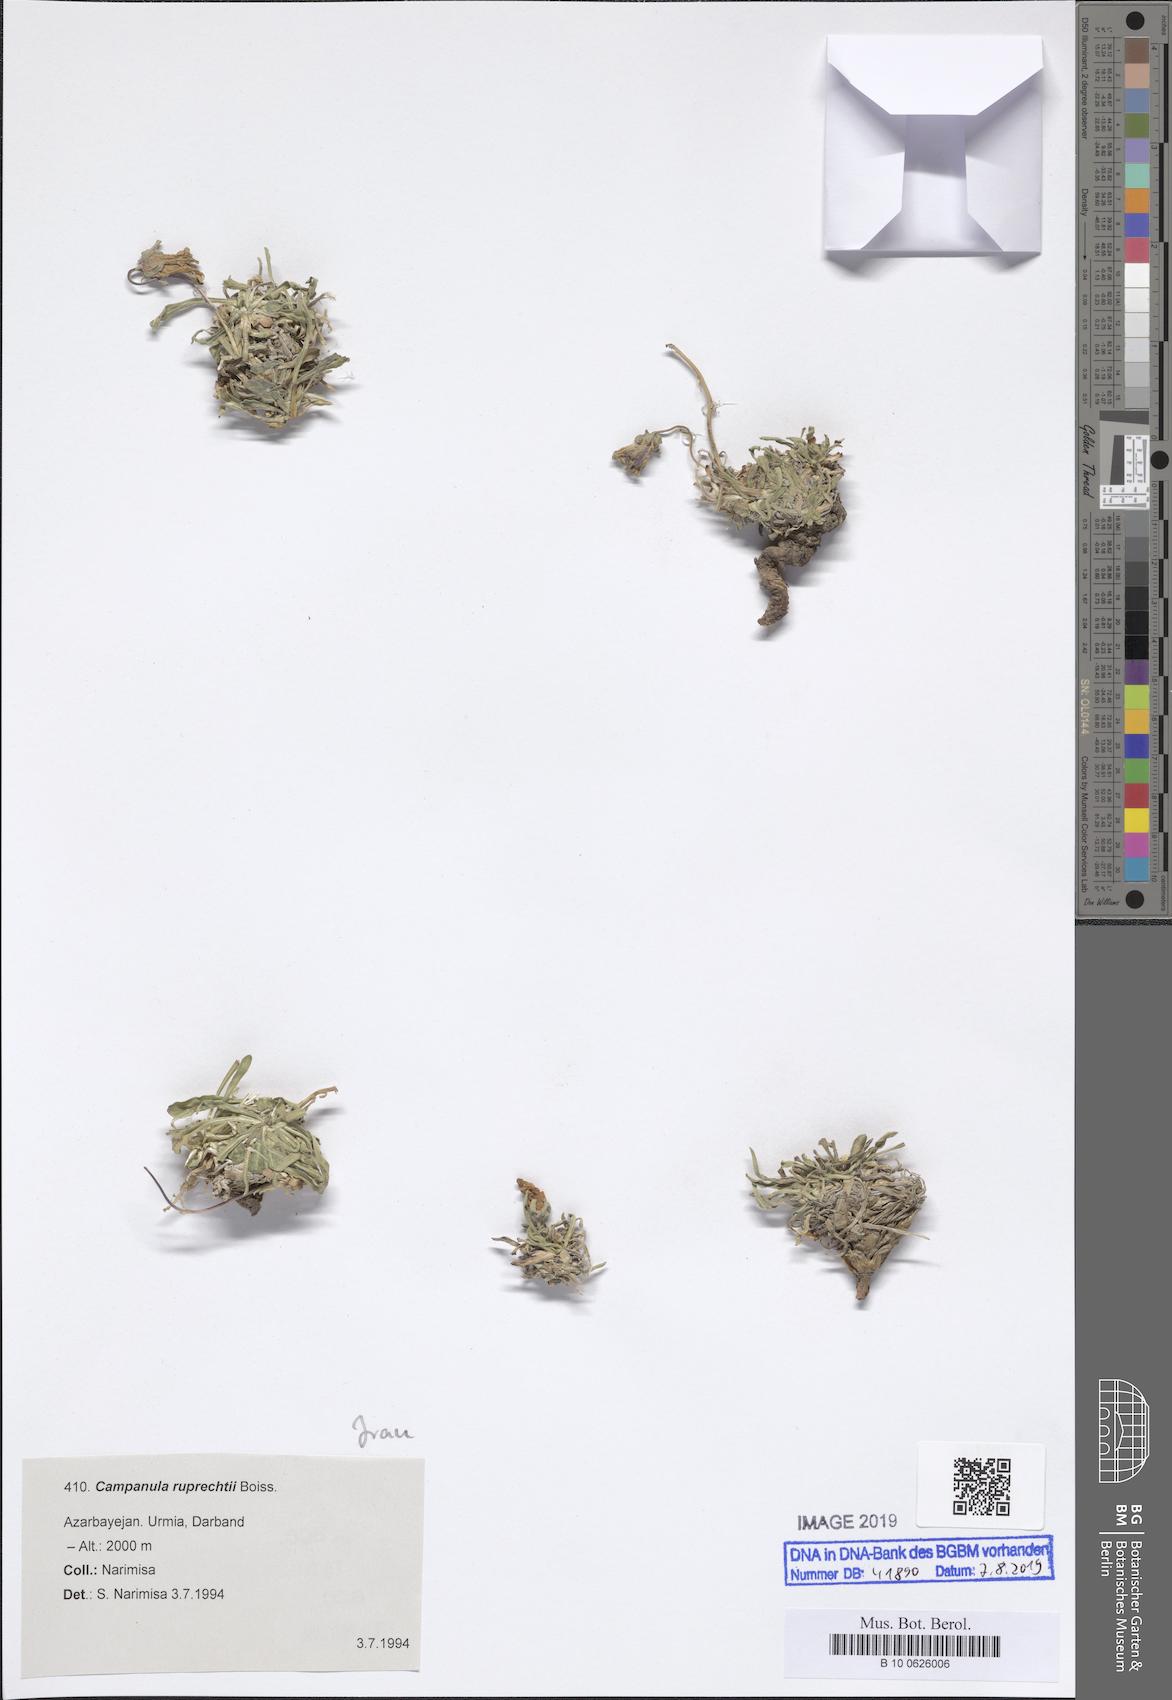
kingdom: Plantae
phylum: Tracheophyta
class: Magnoliopsida
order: Asterales
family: Campanulaceae
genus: Campanula
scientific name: Campanula saxifraga
